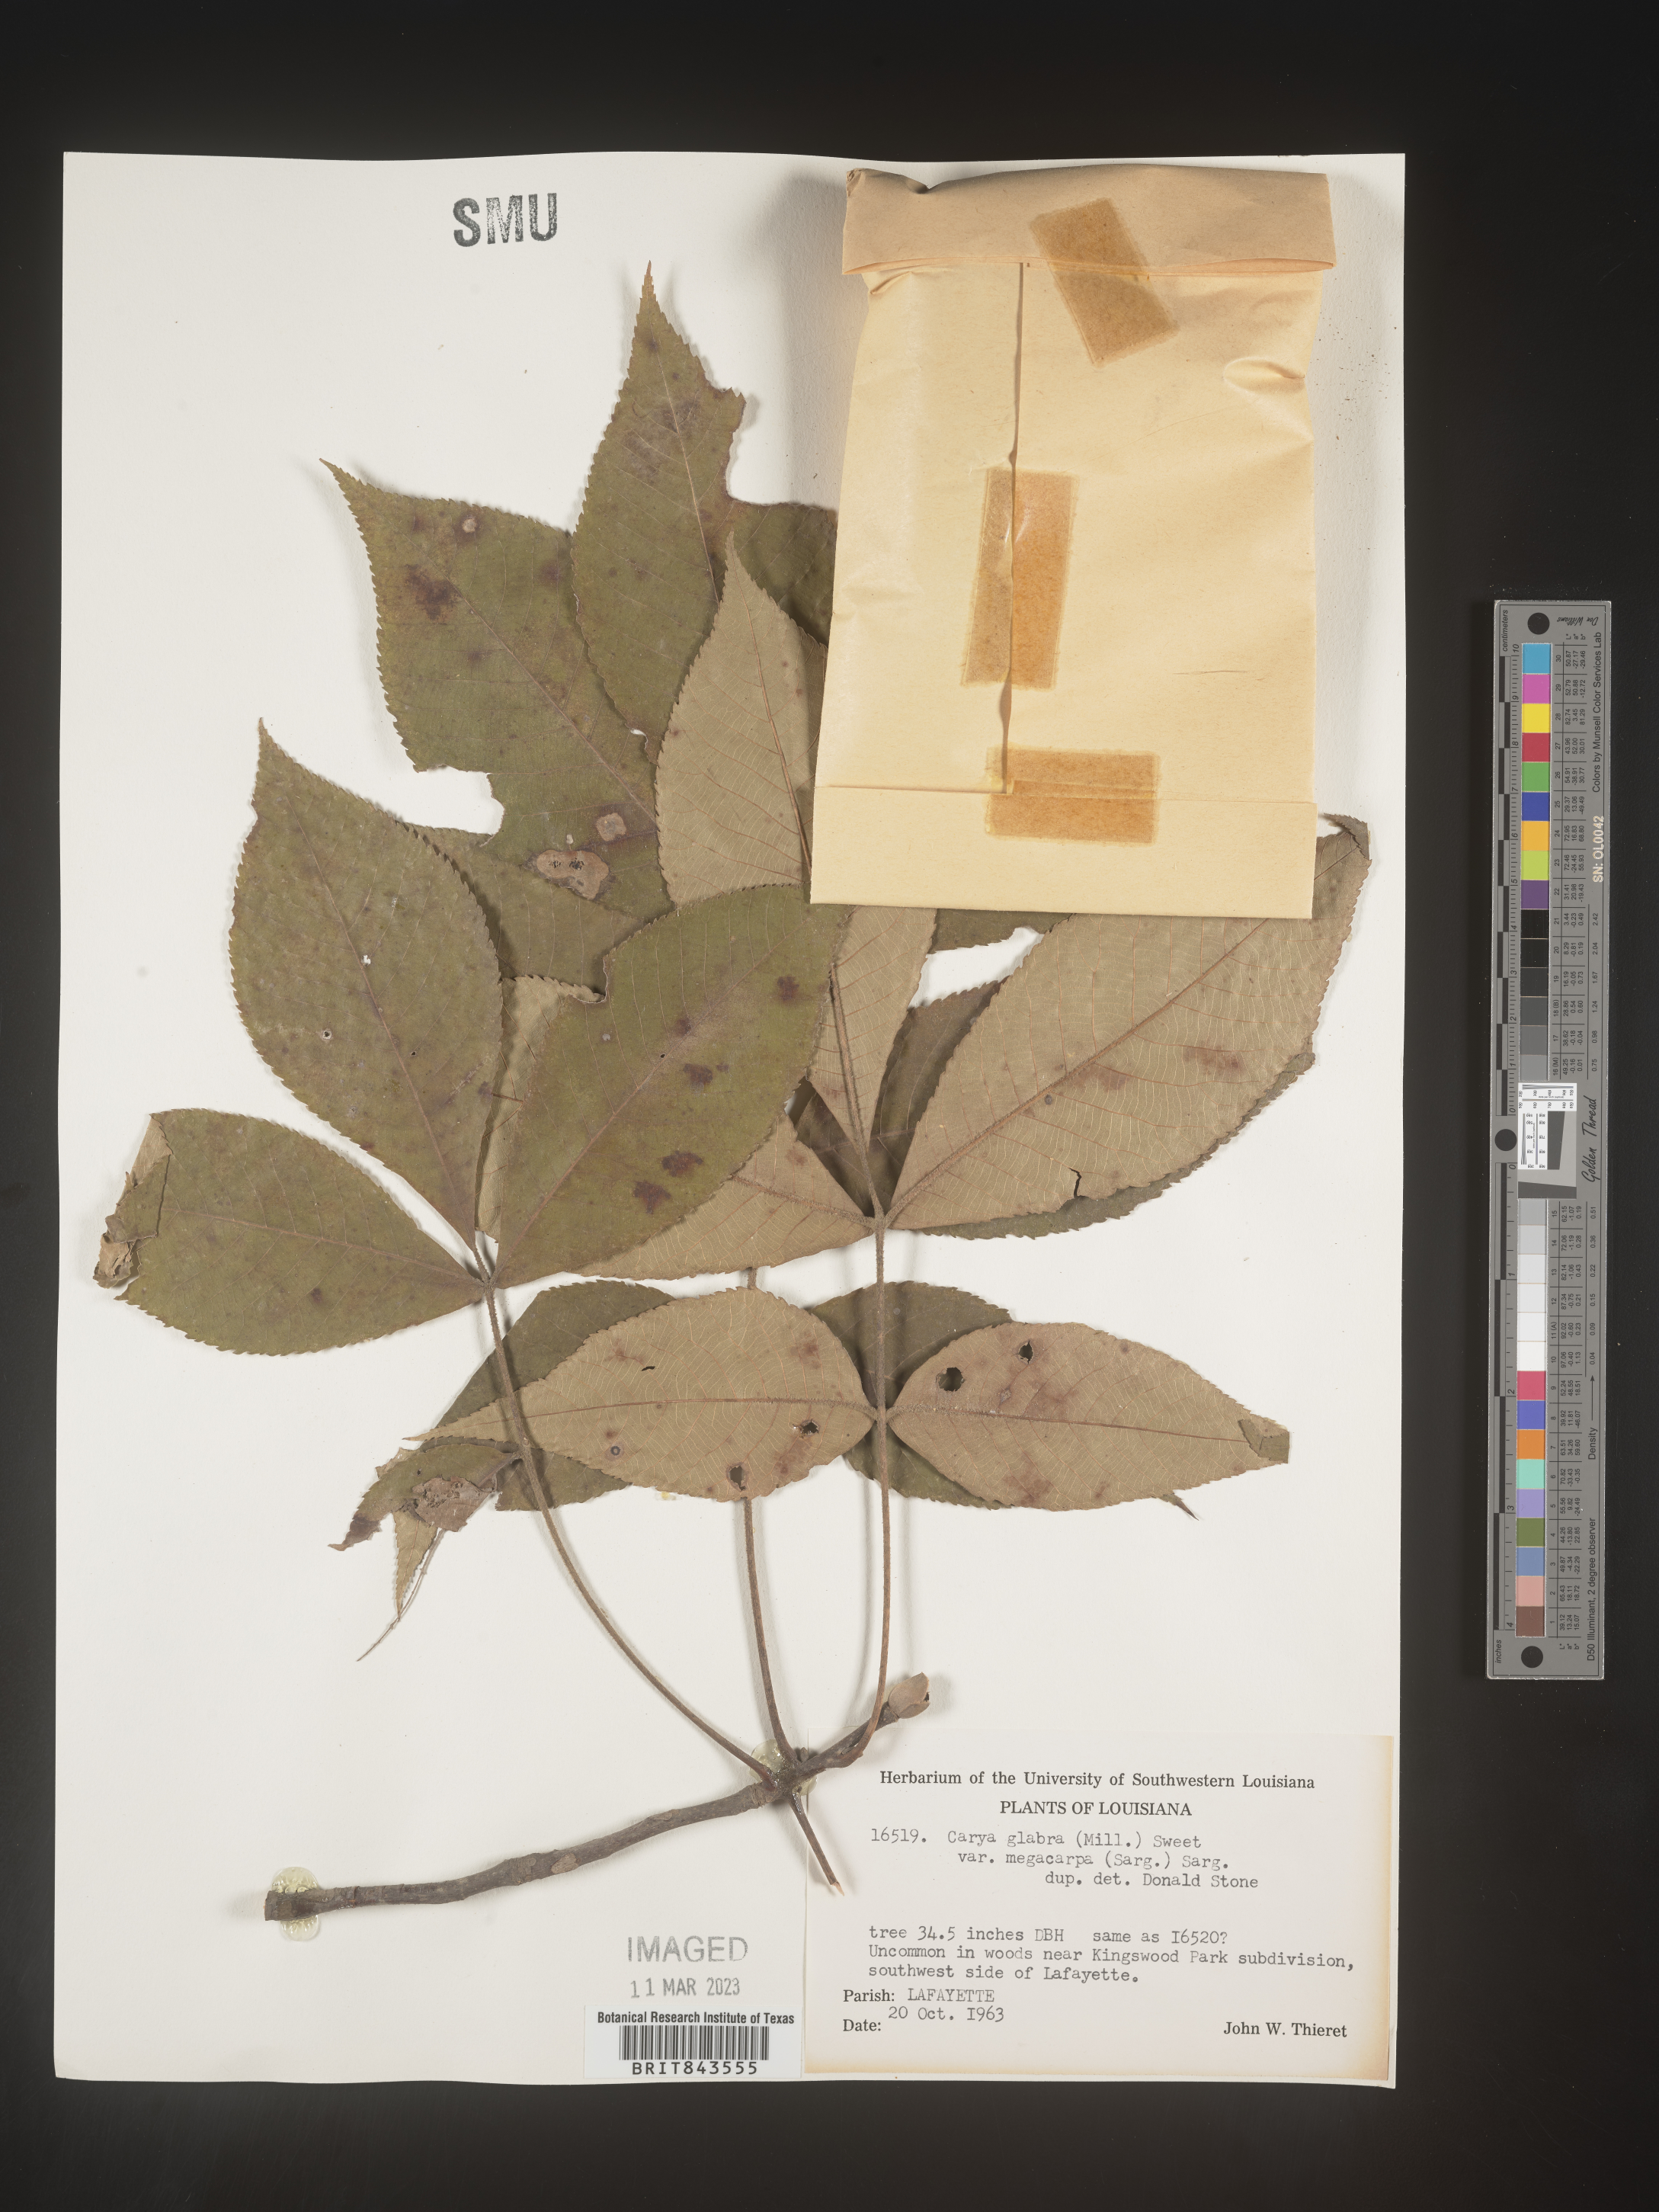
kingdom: Plantae
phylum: Tracheophyta
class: Magnoliopsida
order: Fagales
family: Juglandaceae
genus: Carya
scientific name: Carya glabra
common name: Pignut hickory
